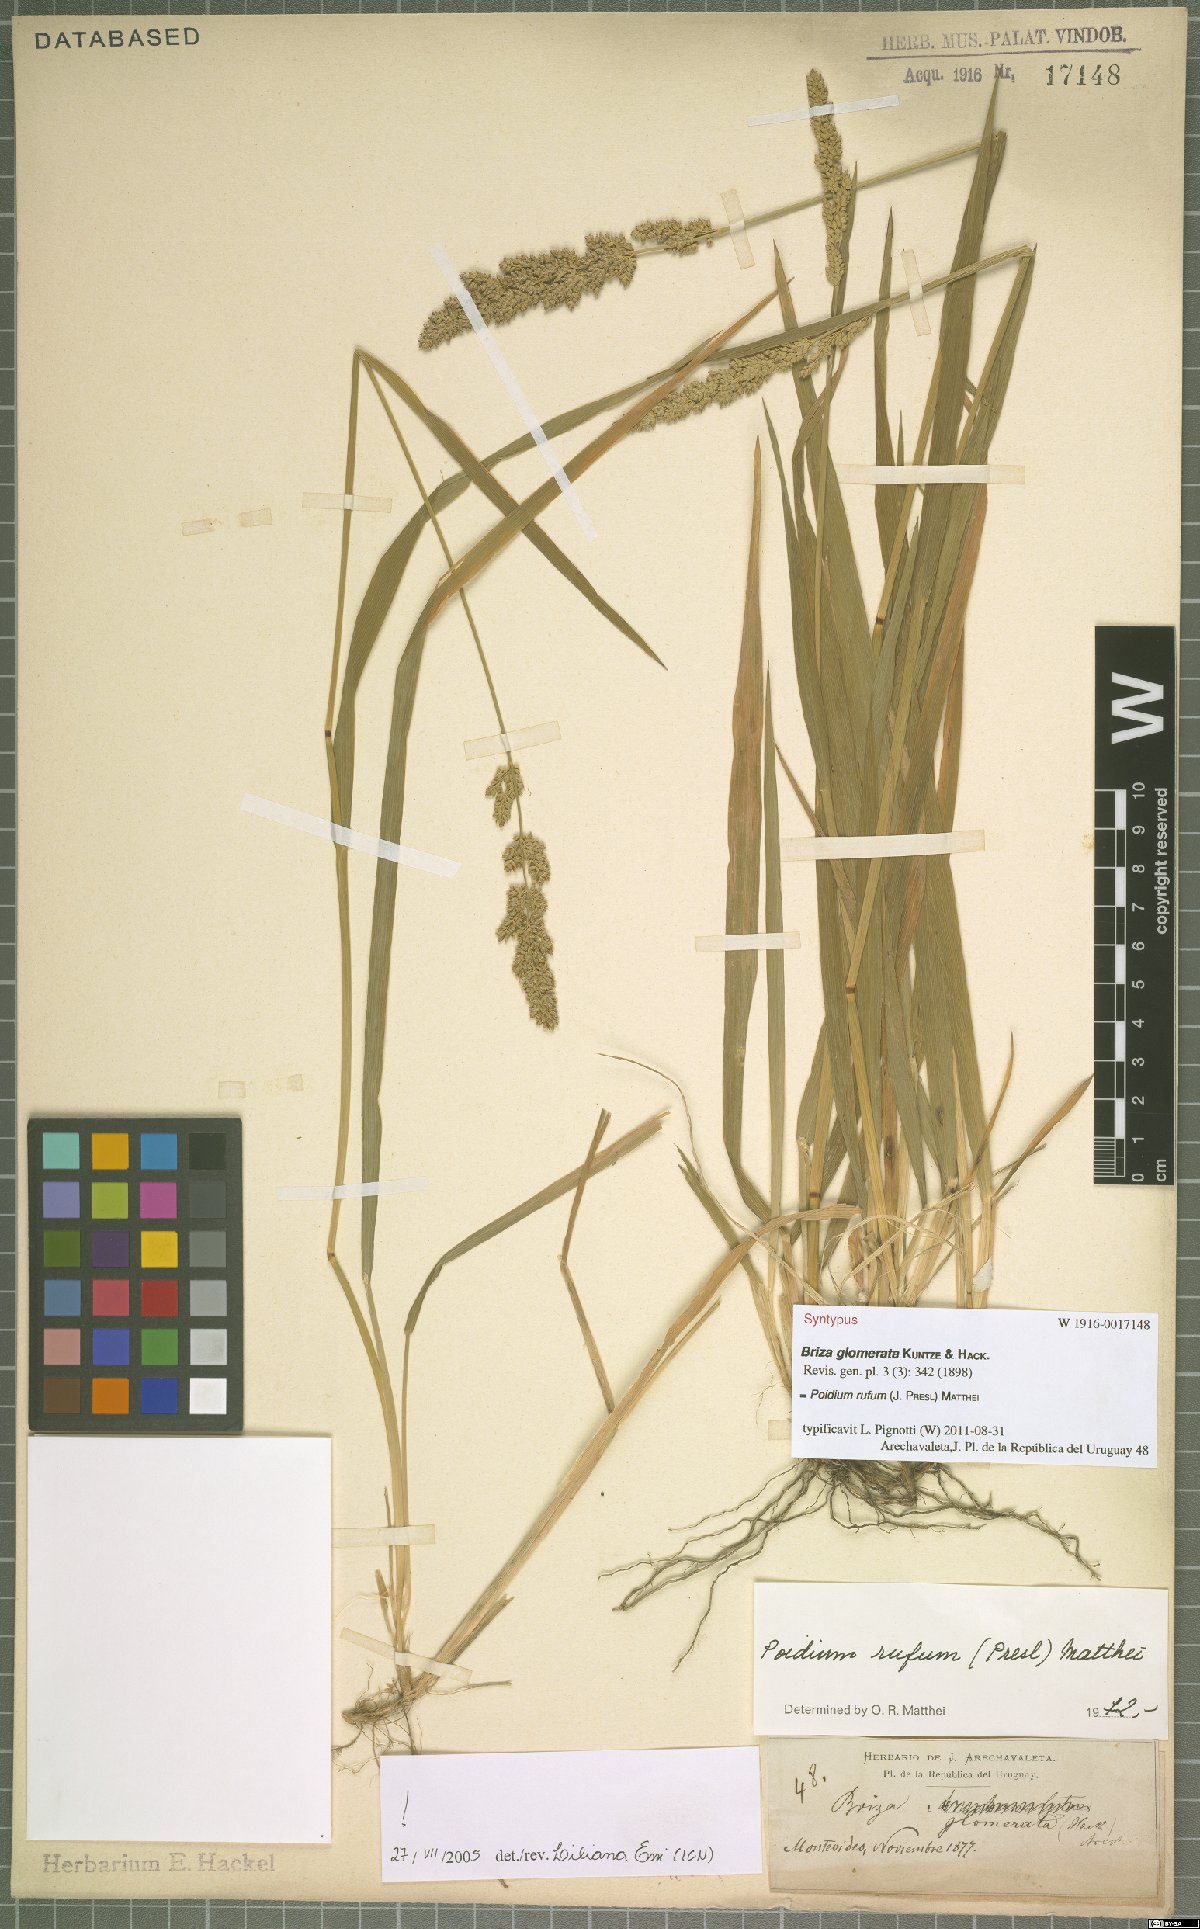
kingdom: Plantae
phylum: Tracheophyta
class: Liliopsida
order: Poales
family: Poaceae
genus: Lombardochloa
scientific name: Lombardochloa rufa
